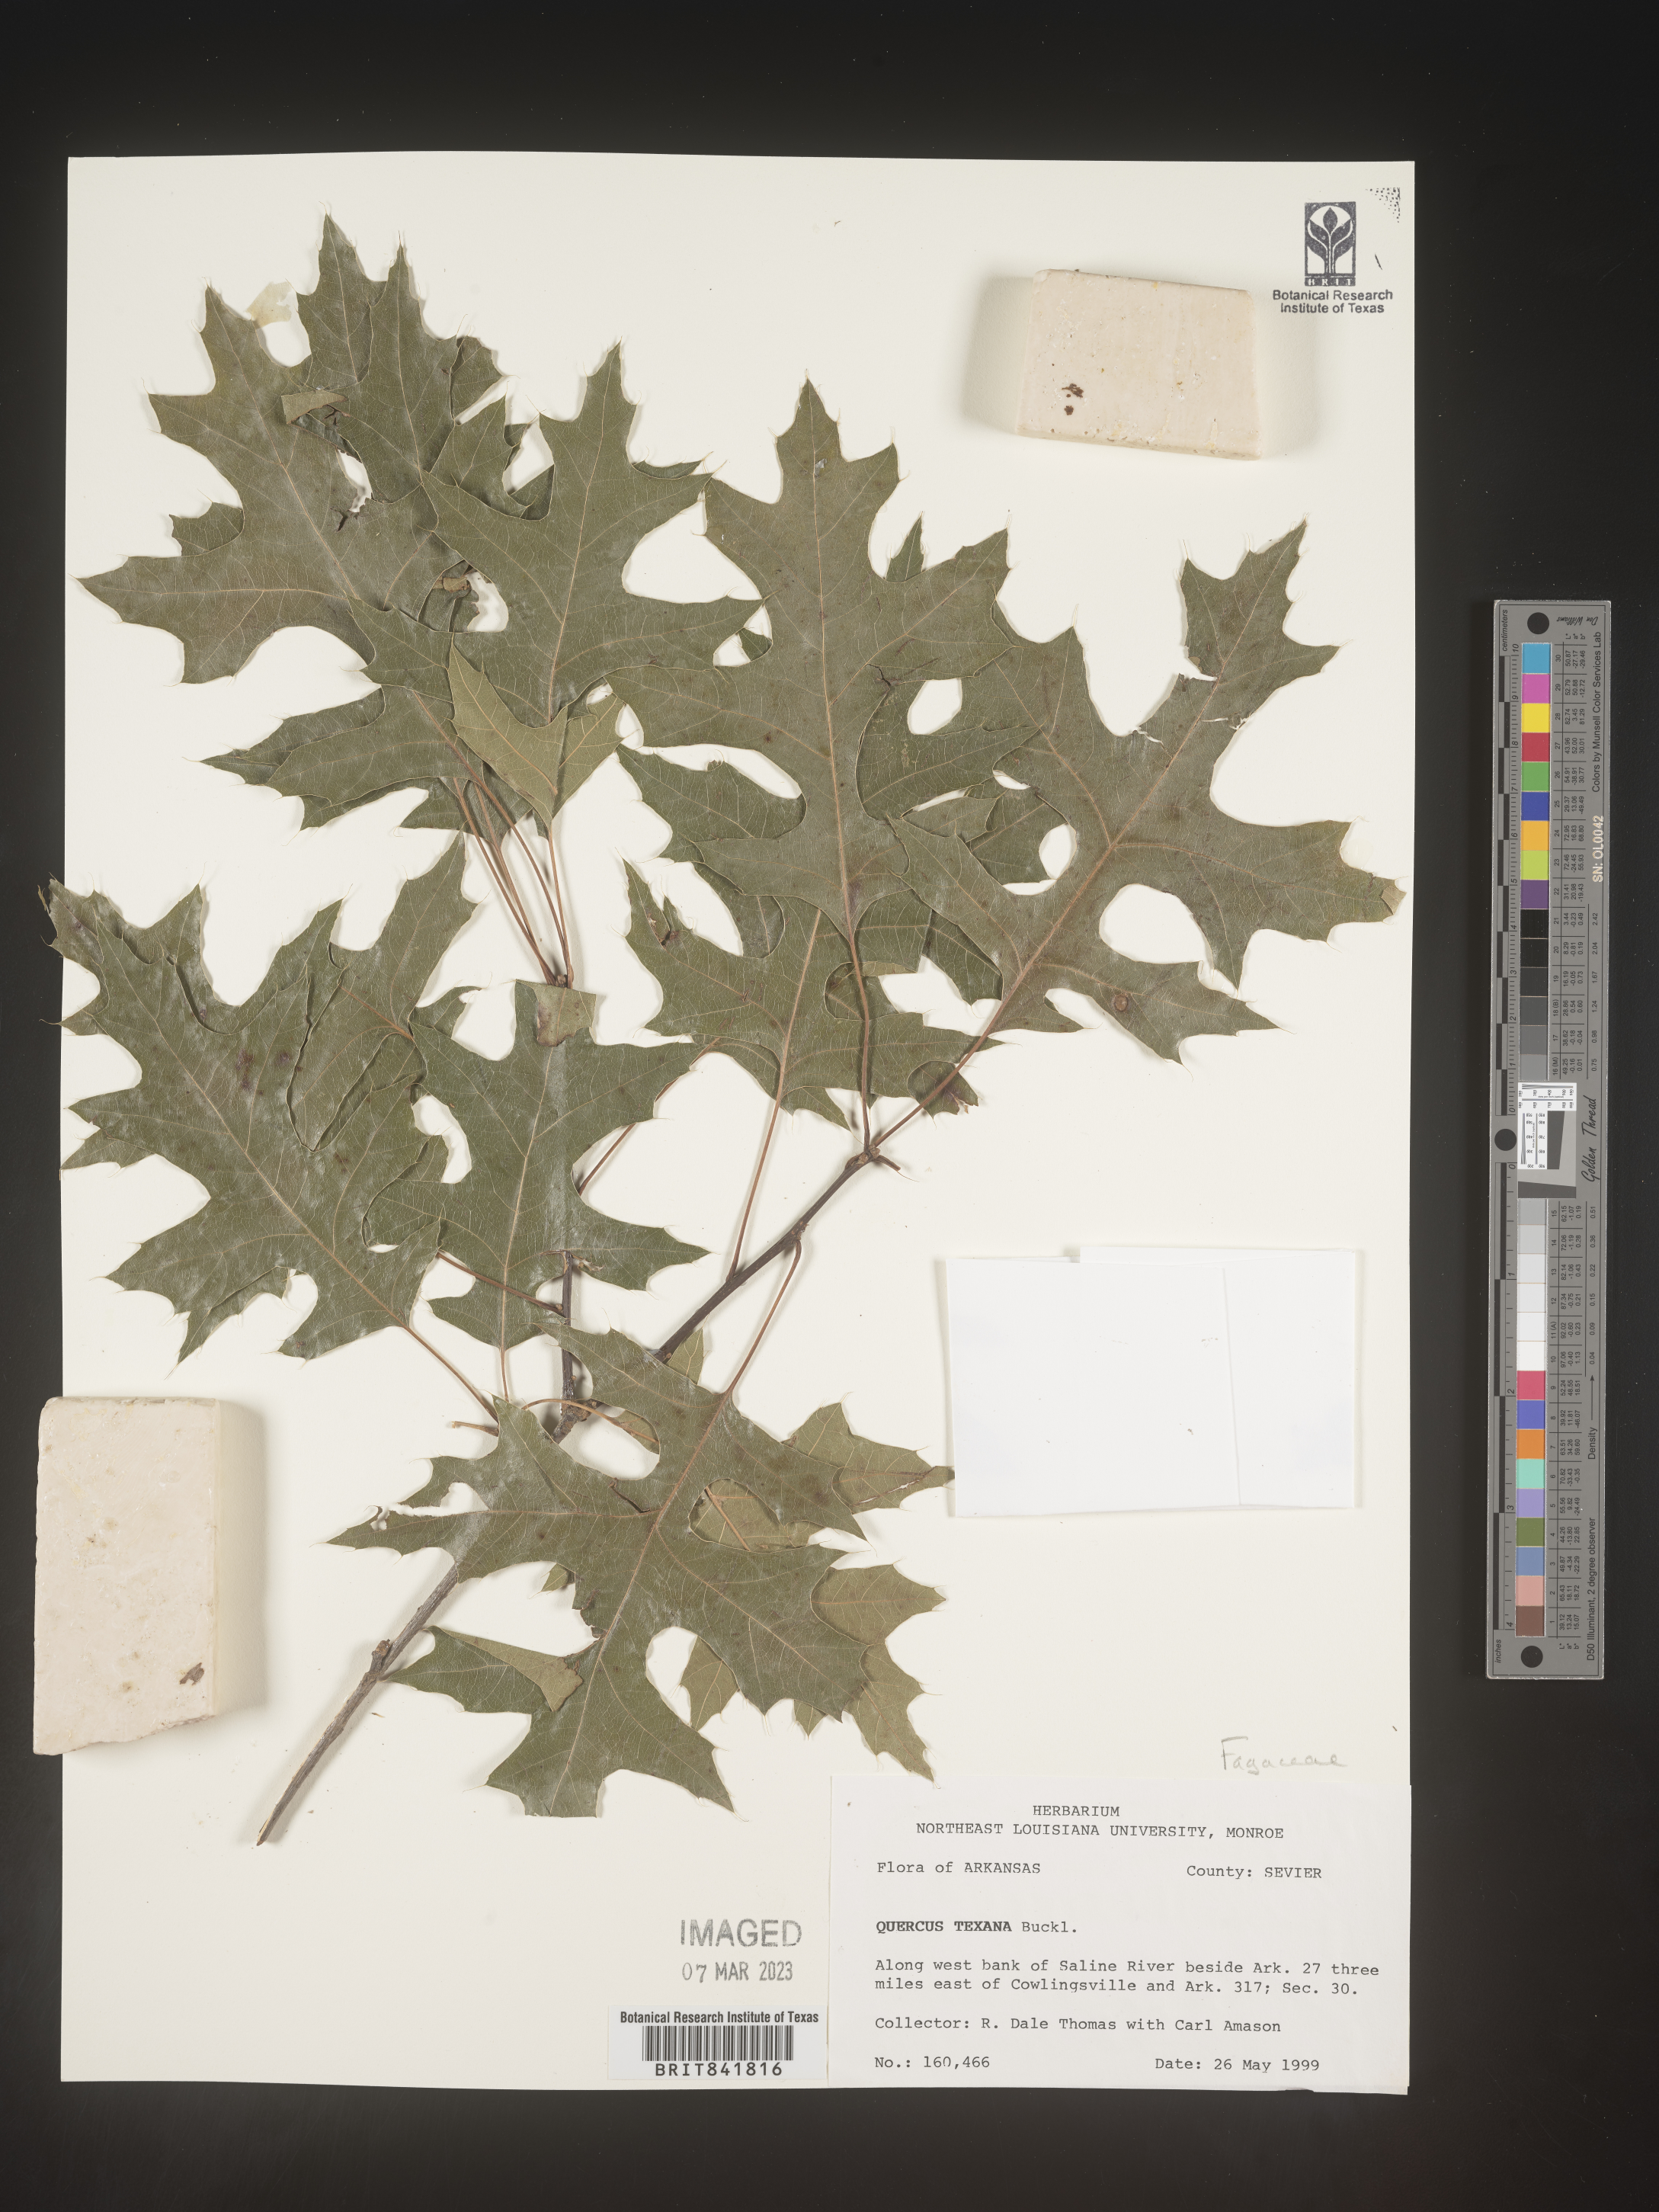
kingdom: Plantae
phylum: Tracheophyta
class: Magnoliopsida
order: Fagales
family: Fagaceae
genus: Quercus
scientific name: Quercus texana
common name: Nuttall oak
